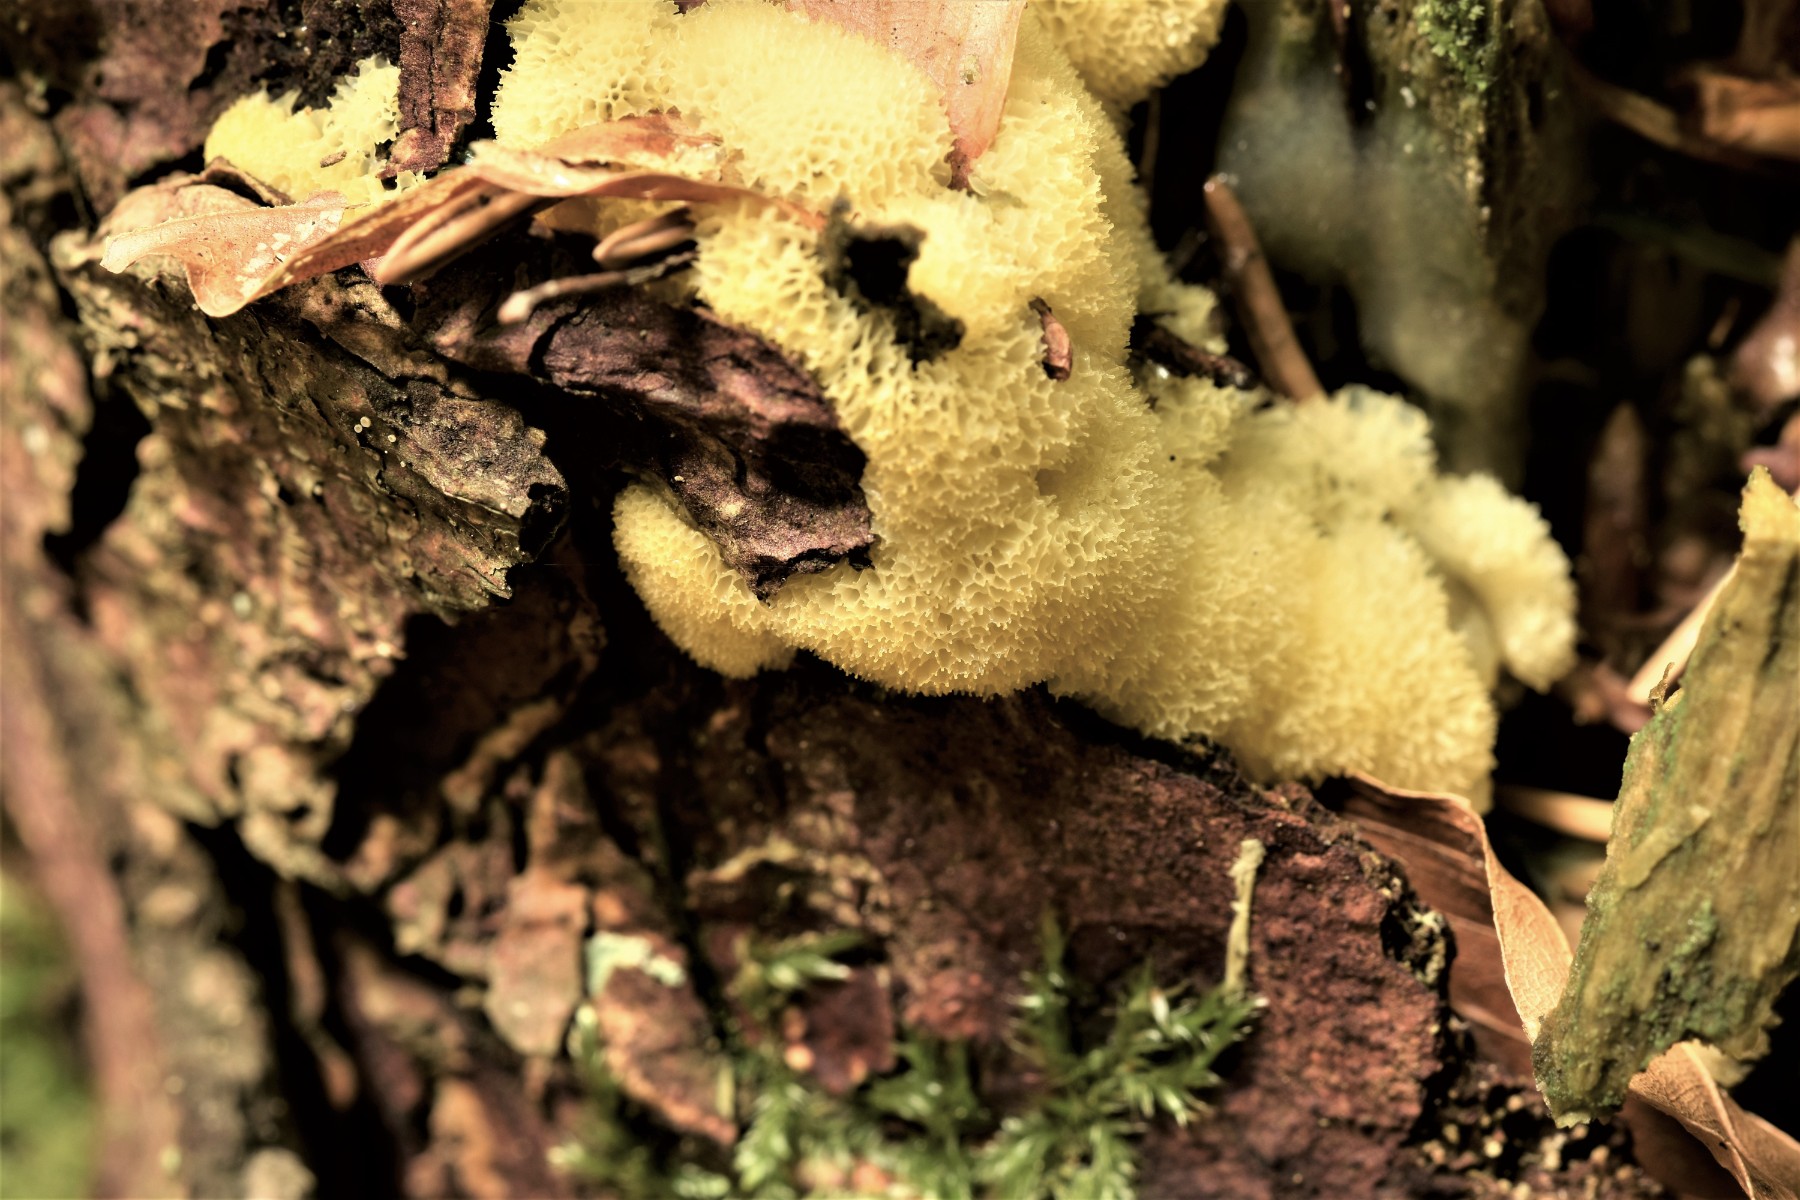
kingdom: Protozoa
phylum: Mycetozoa
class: Protosteliomycetes
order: Ceratiomyxales
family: Ceratiomyxaceae
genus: Ceratiomyxa
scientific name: Ceratiomyxa fruticulosa
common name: Honeycomb coral slime mold
